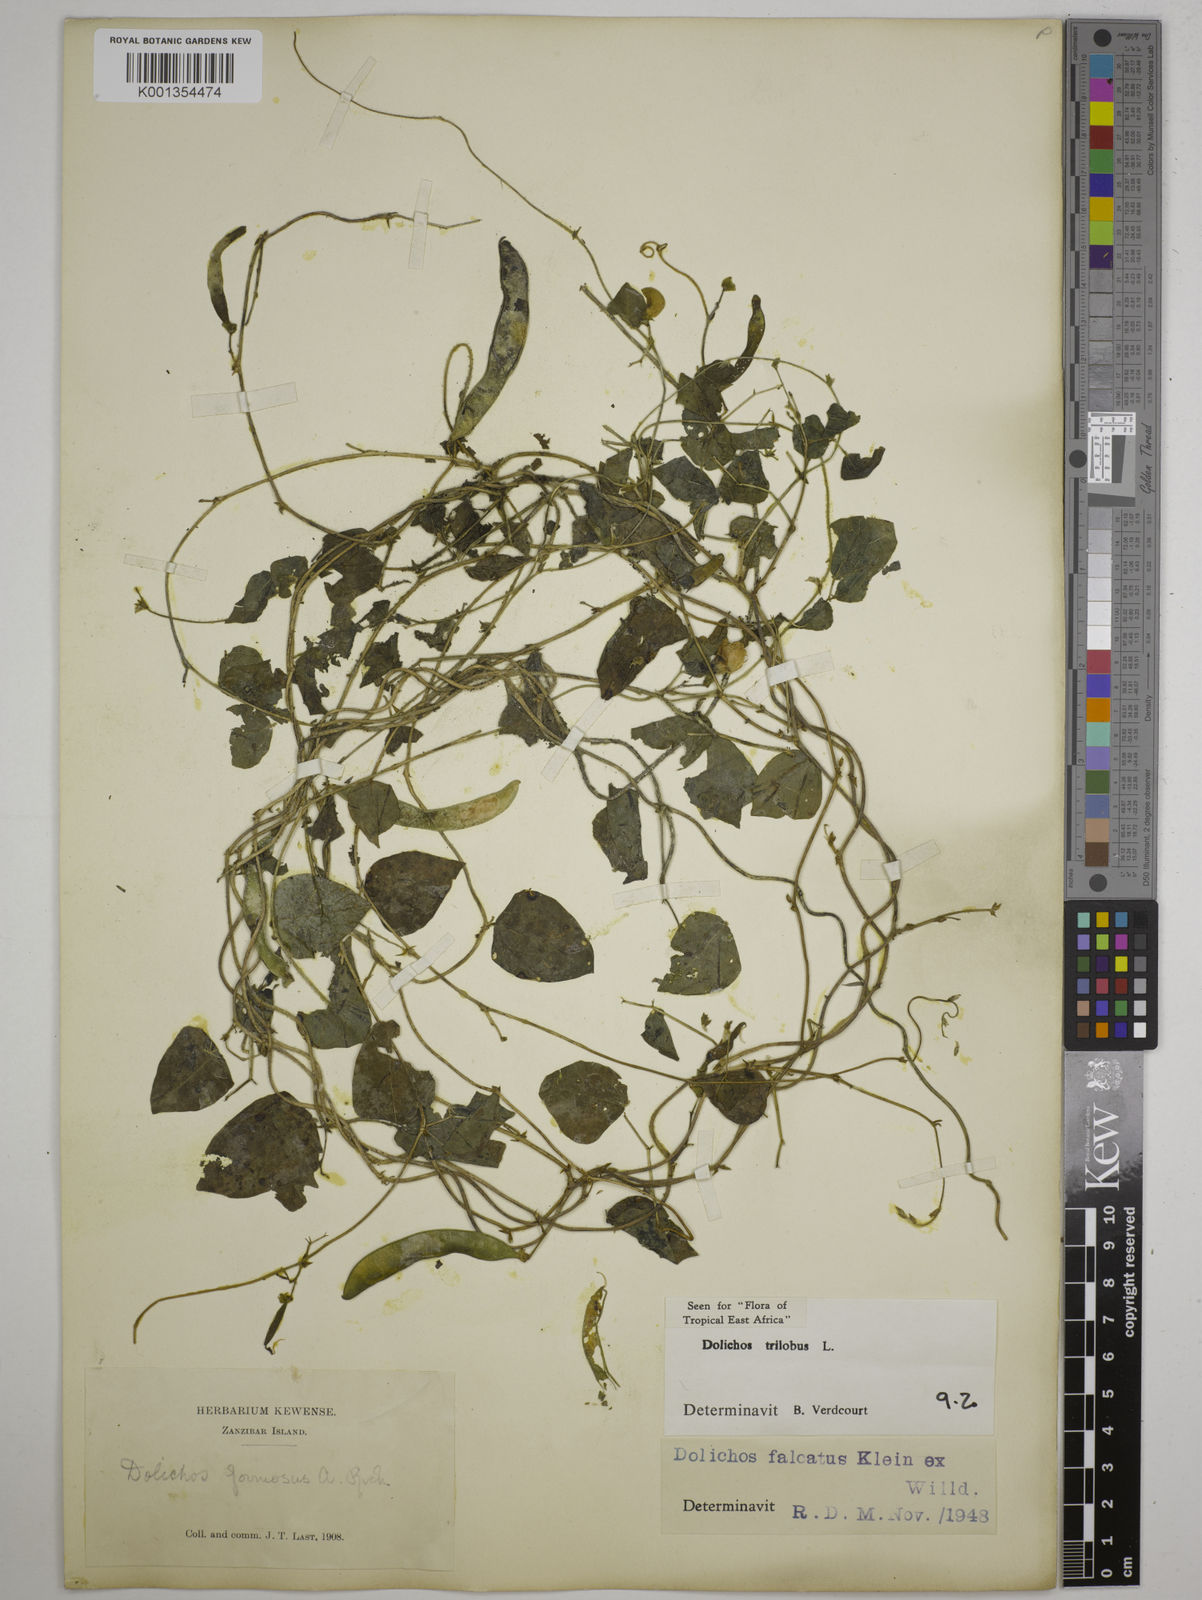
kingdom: Plantae
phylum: Tracheophyta
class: Magnoliopsida
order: Fabales
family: Fabaceae
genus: Dolichos
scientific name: Dolichos
